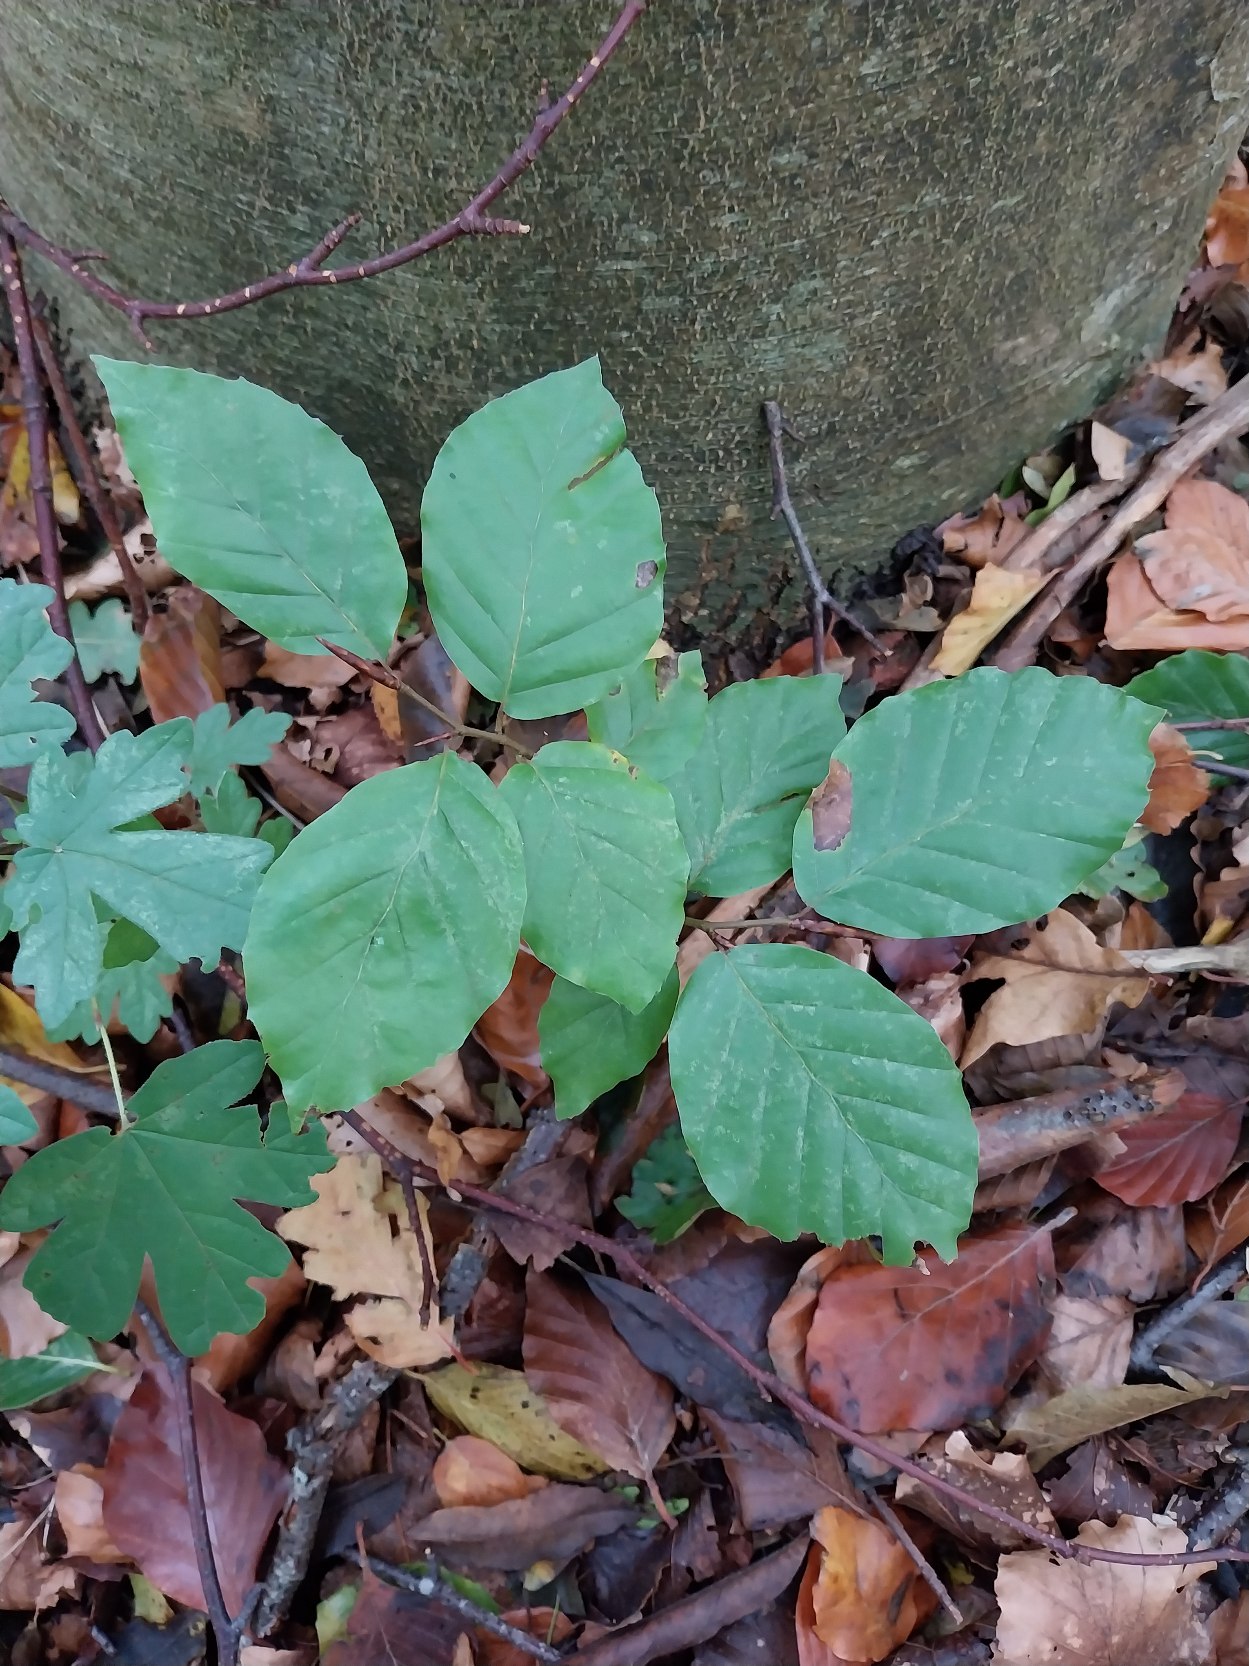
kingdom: Plantae
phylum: Tracheophyta
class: Magnoliopsida
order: Fagales
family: Fagaceae
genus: Fagus
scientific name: Fagus sylvatica
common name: Bøg
